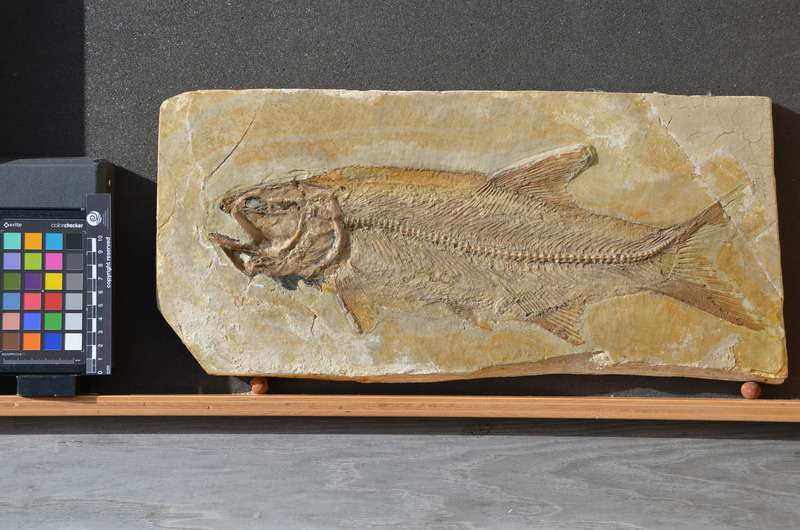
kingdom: Animalia
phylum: Chordata
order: Amiiformes
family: Ionoscopidae
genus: Ionoscopus
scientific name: Ionoscopus cyprinoides
